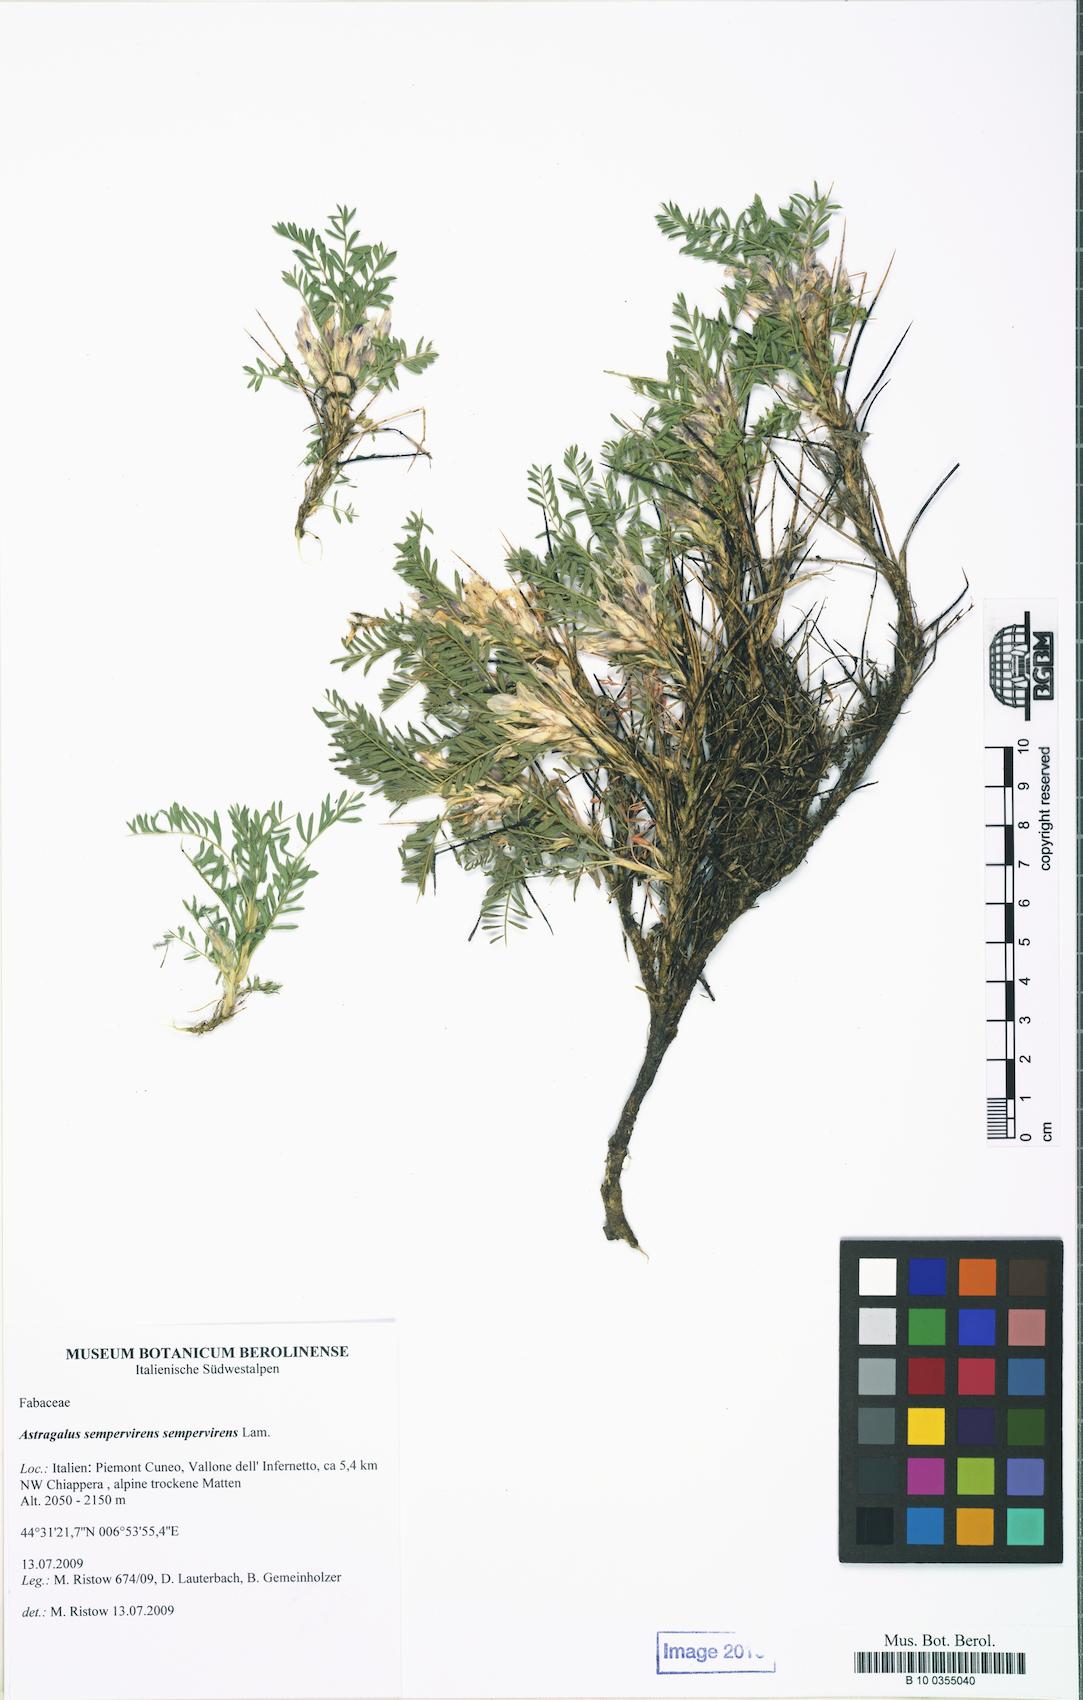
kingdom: Plantae
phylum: Tracheophyta
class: Magnoliopsida
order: Fabales
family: Fabaceae
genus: Astragalus
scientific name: Astragalus sempervirens
